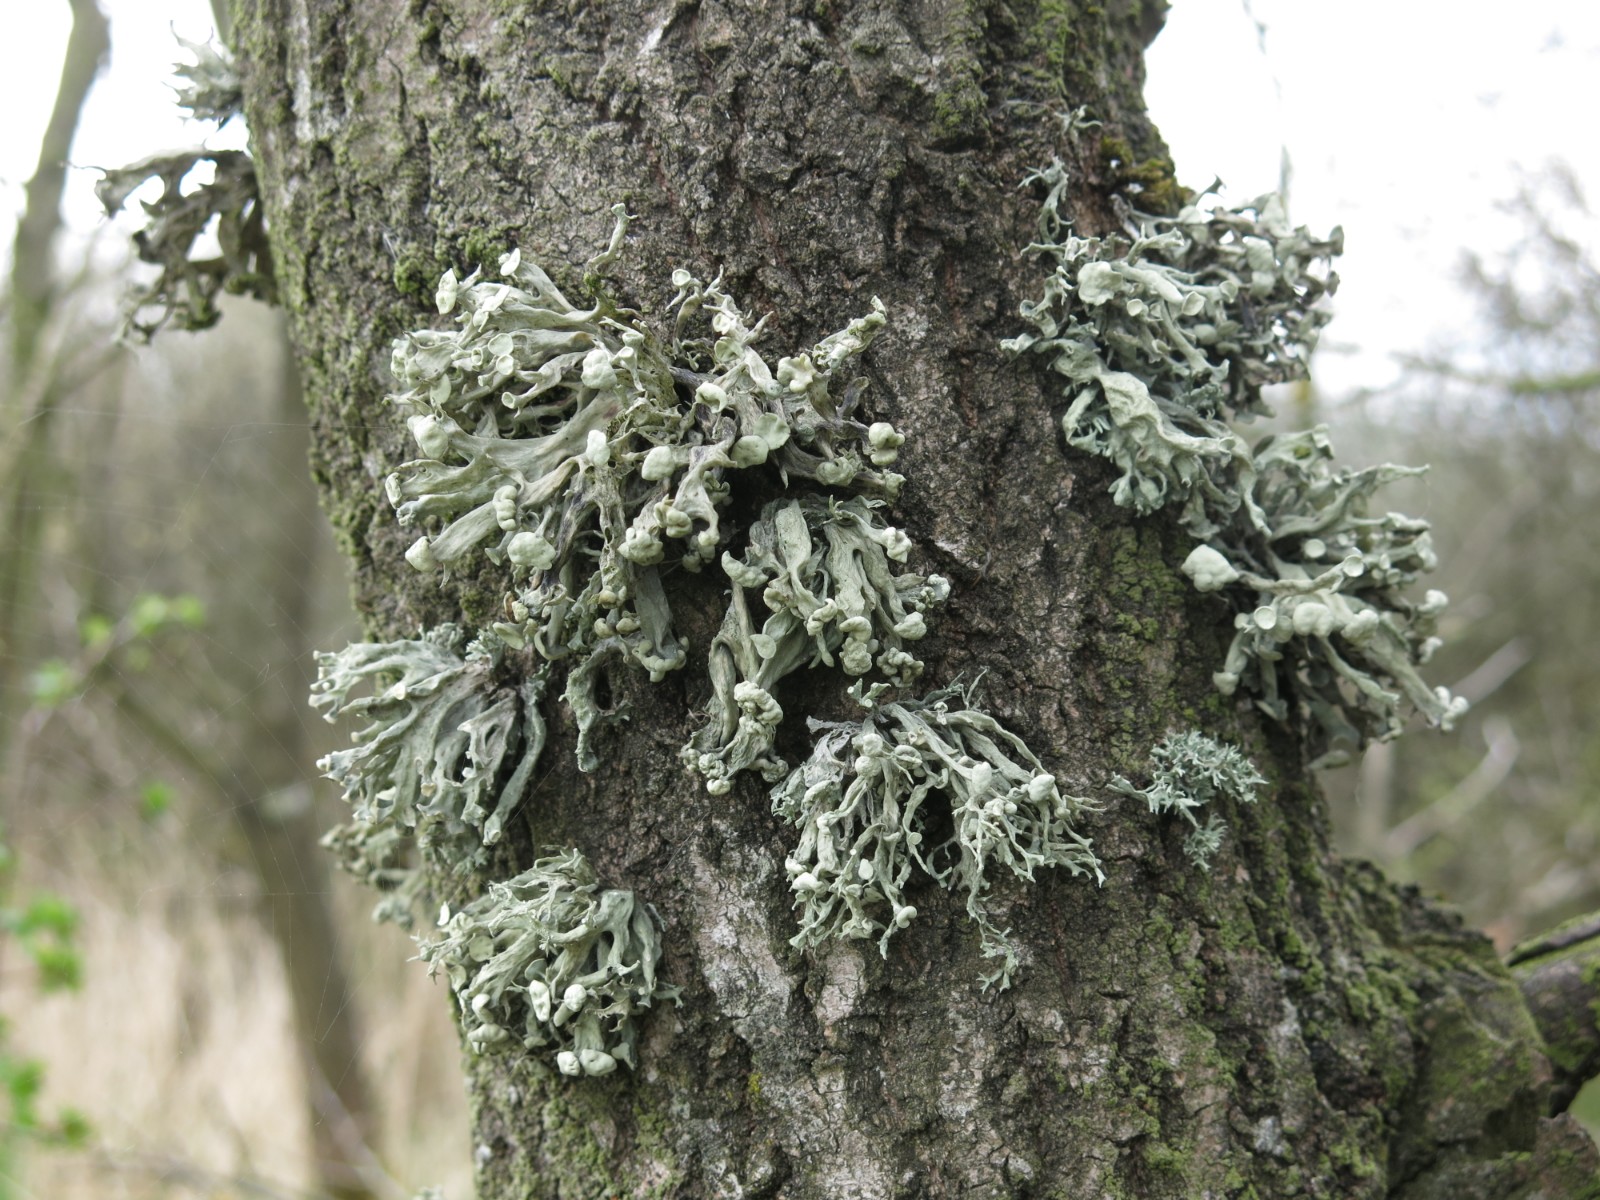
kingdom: Fungi
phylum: Ascomycota
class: Lecanoromycetes
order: Lecanorales
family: Ramalinaceae
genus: Ramalina
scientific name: Ramalina fastigiata
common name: tue-grenlav
